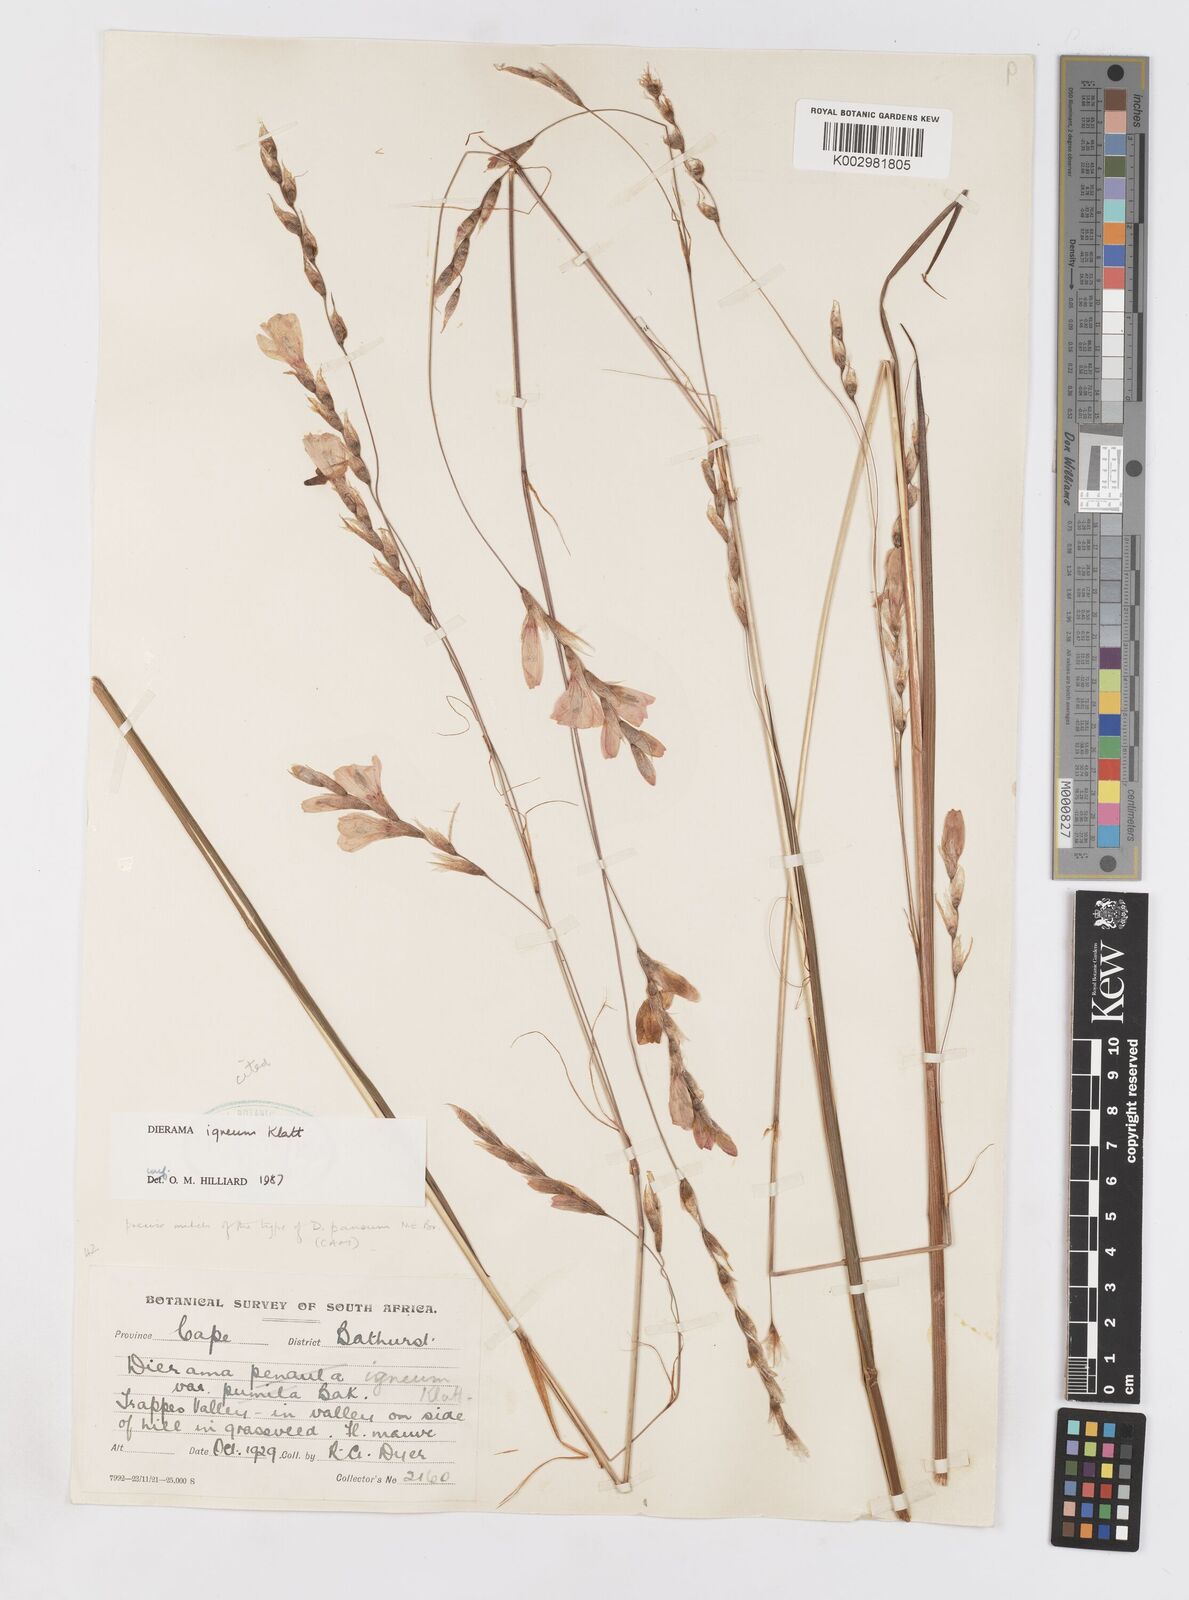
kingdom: Plantae
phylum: Tracheophyta
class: Liliopsida
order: Asparagales
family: Iridaceae
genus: Dierama
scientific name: Dierama igneum
